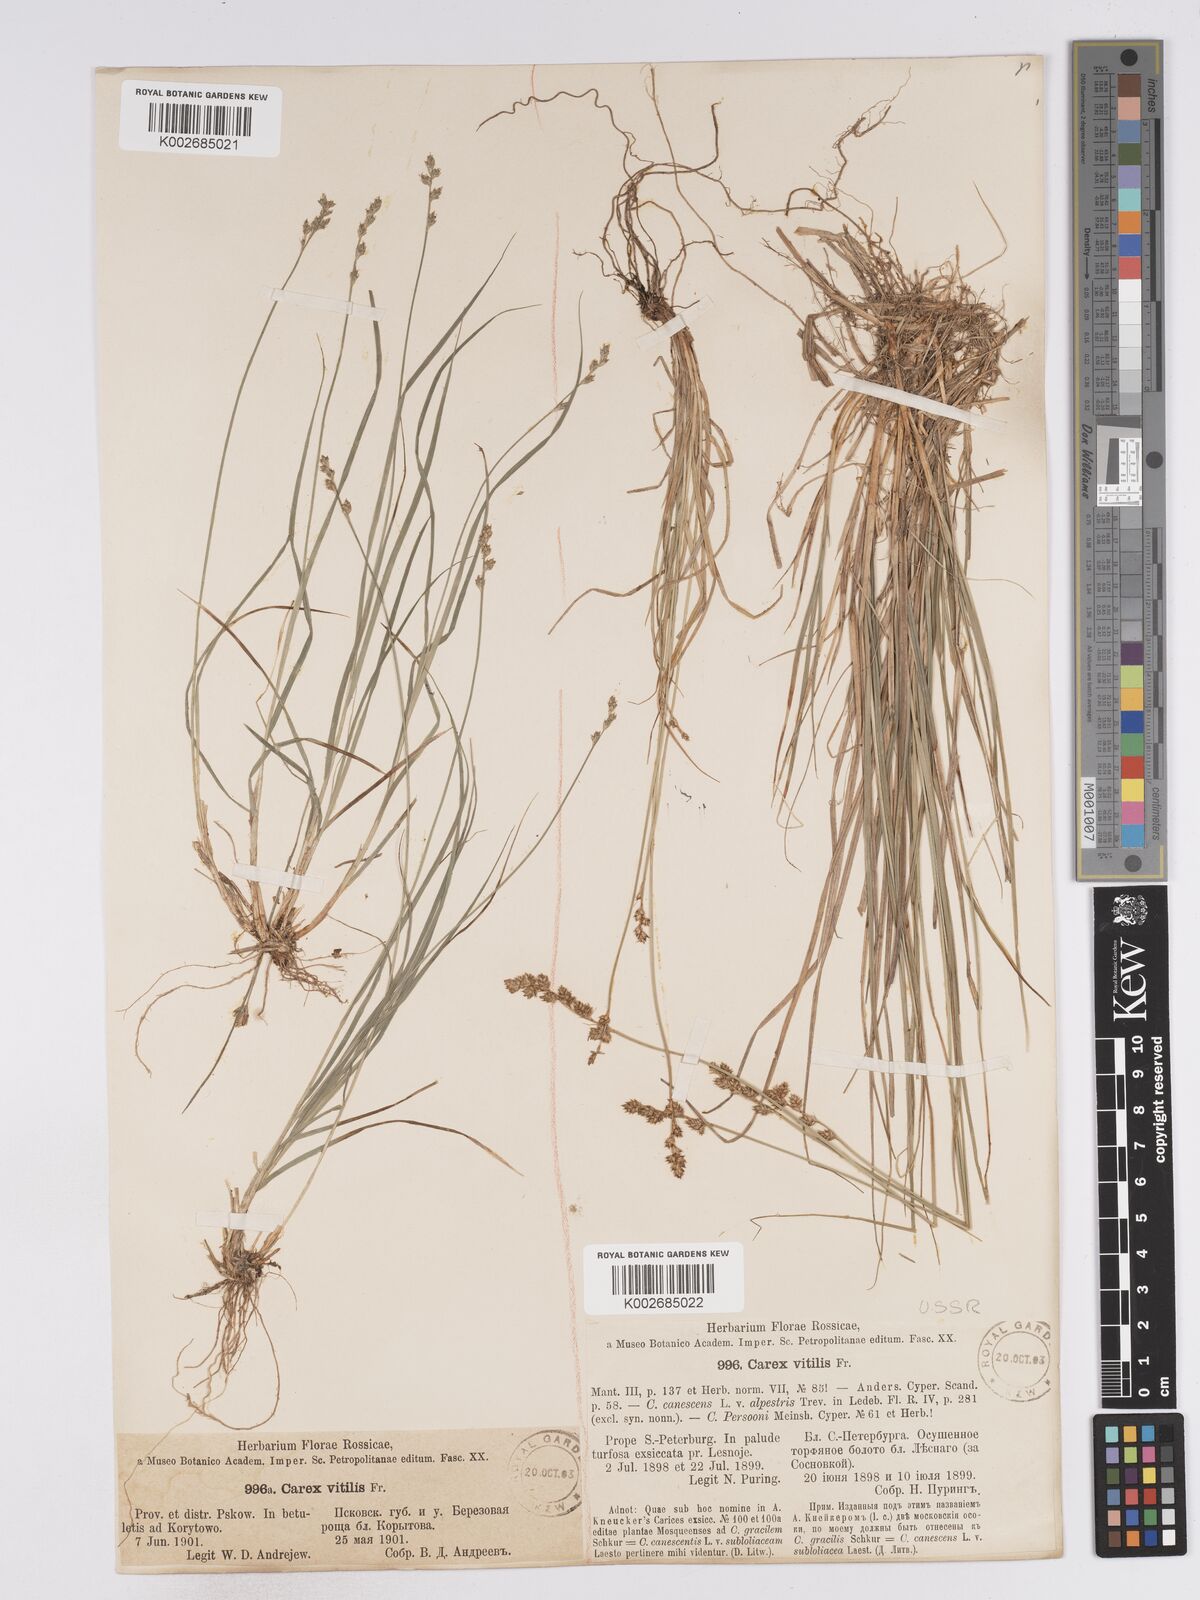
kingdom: Plantae
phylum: Tracheophyta
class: Liliopsida
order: Poales
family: Cyperaceae
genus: Carex
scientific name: Carex brunnescens
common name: Brown sedge
